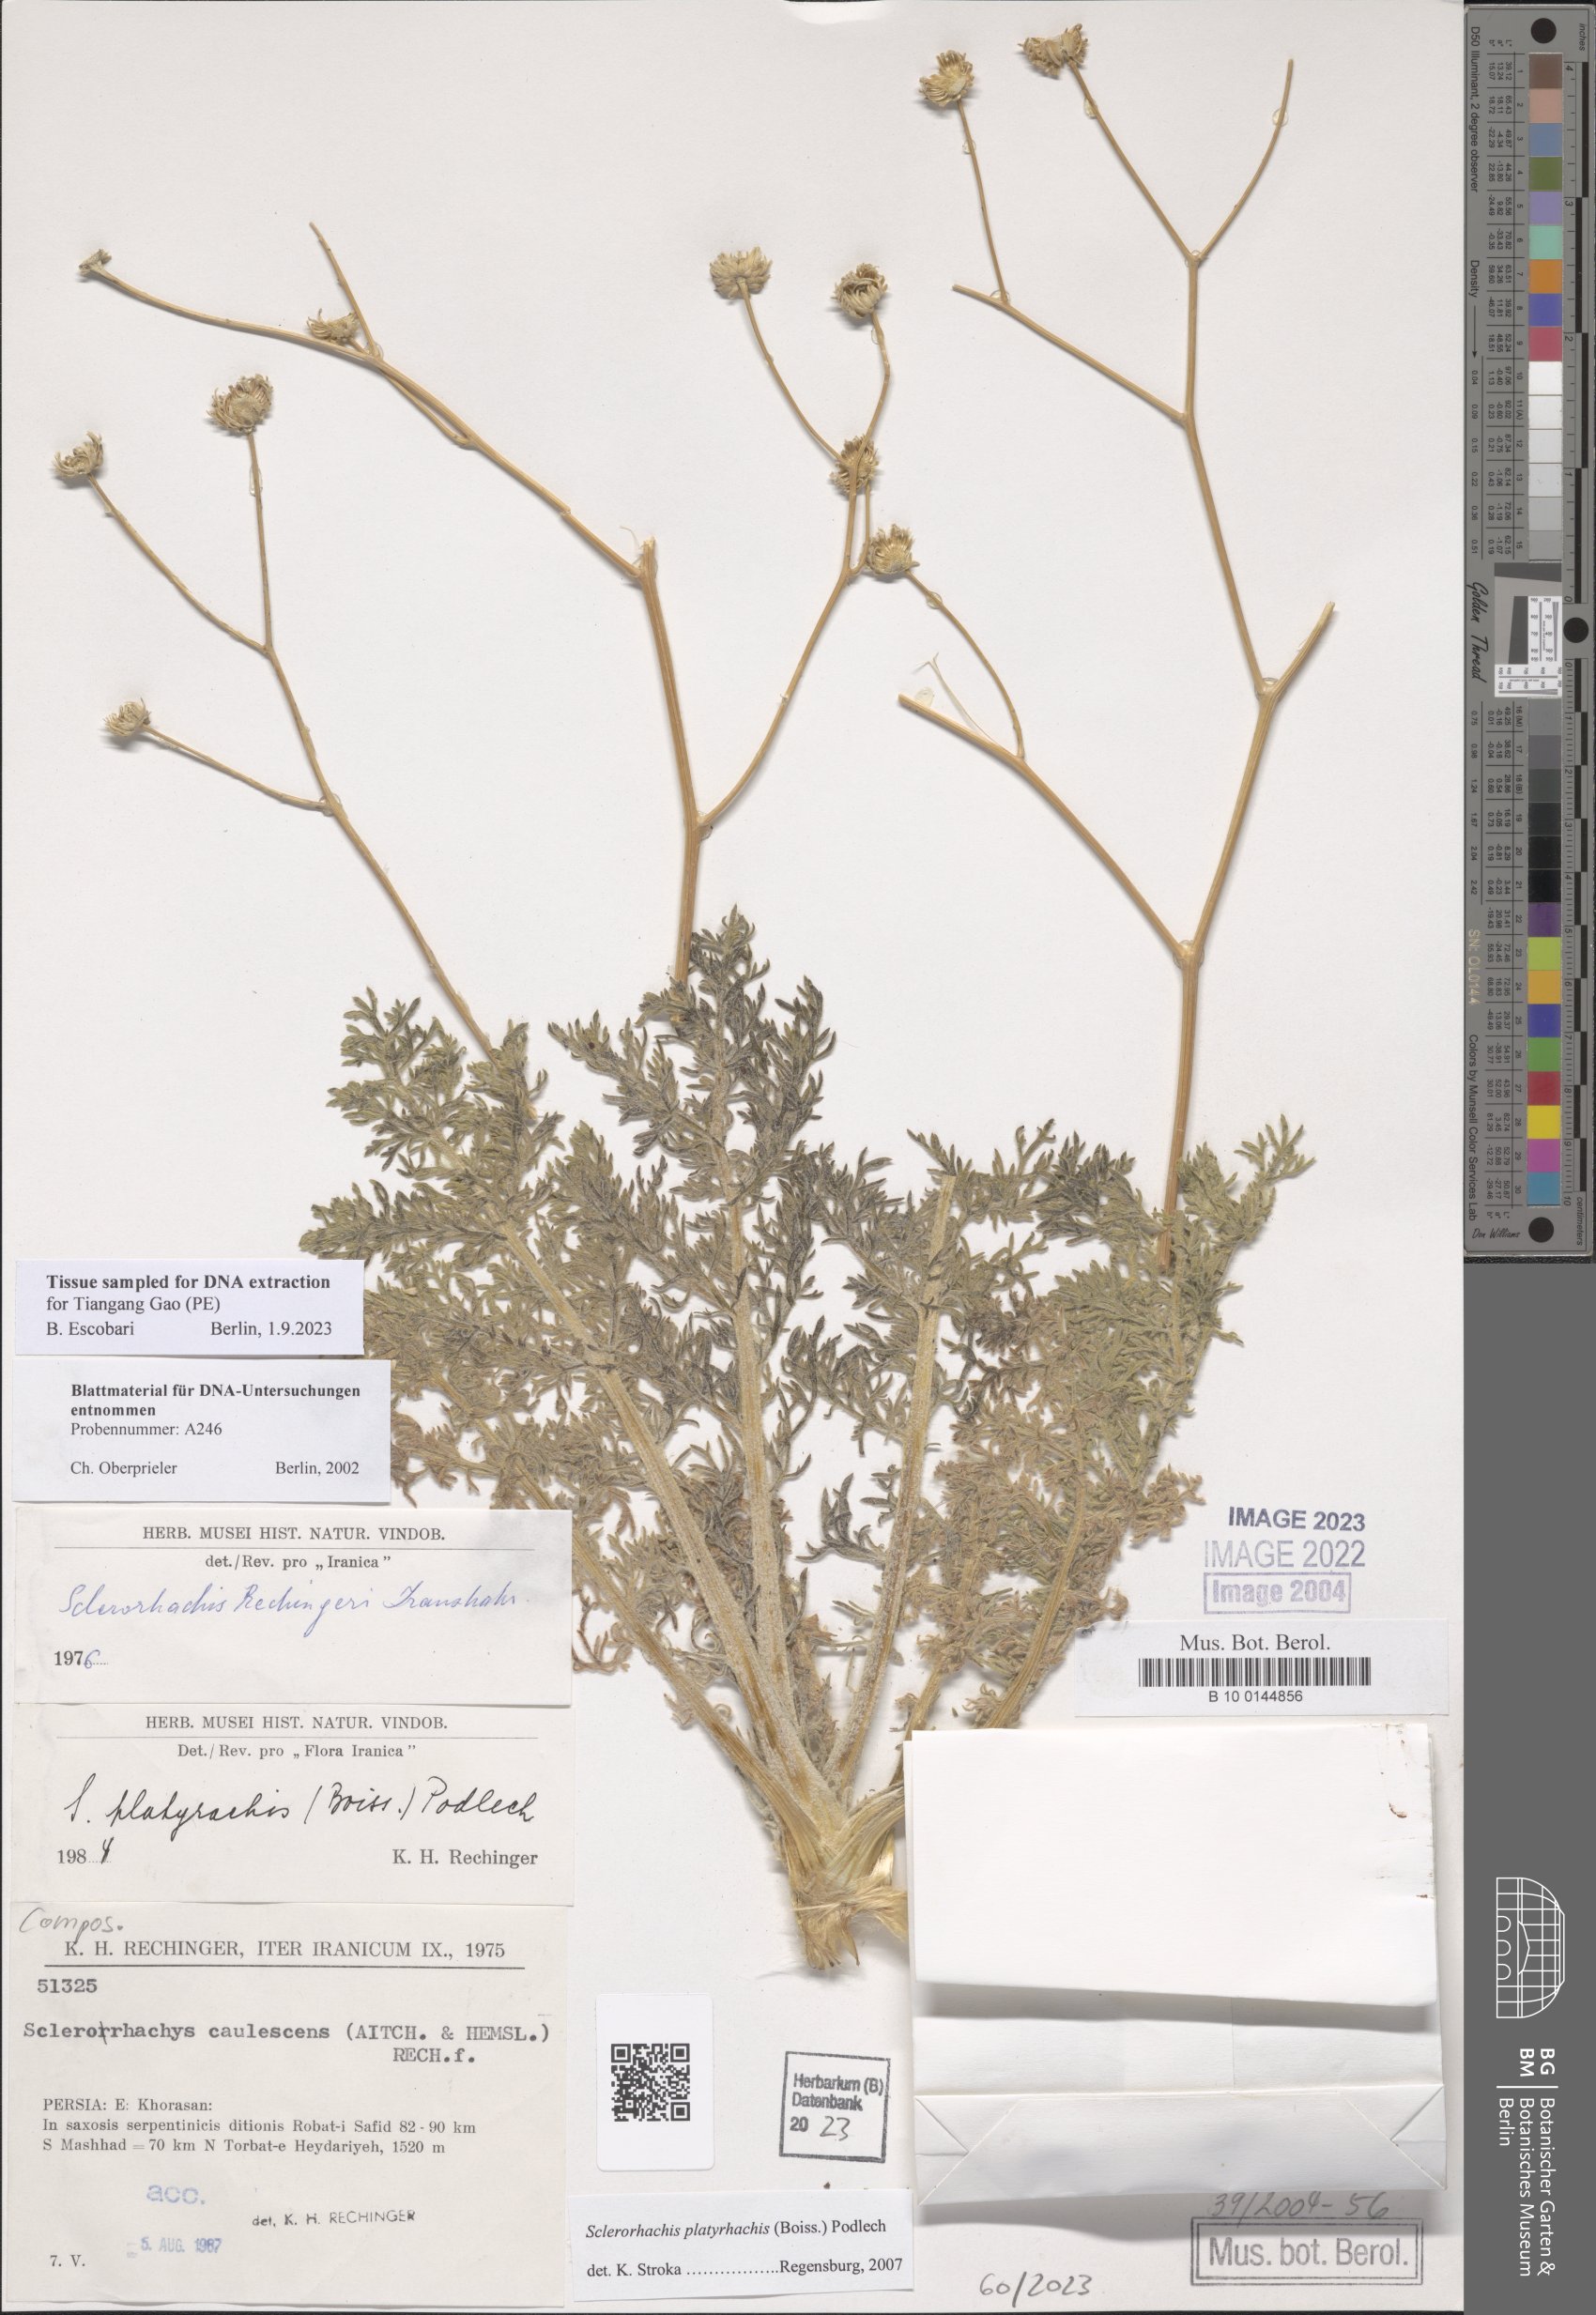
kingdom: Plantae
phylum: Tracheophyta
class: Magnoliopsida
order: Asterales
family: Asteraceae
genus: Sclerorhachis
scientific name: Sclerorhachis platyrachis
